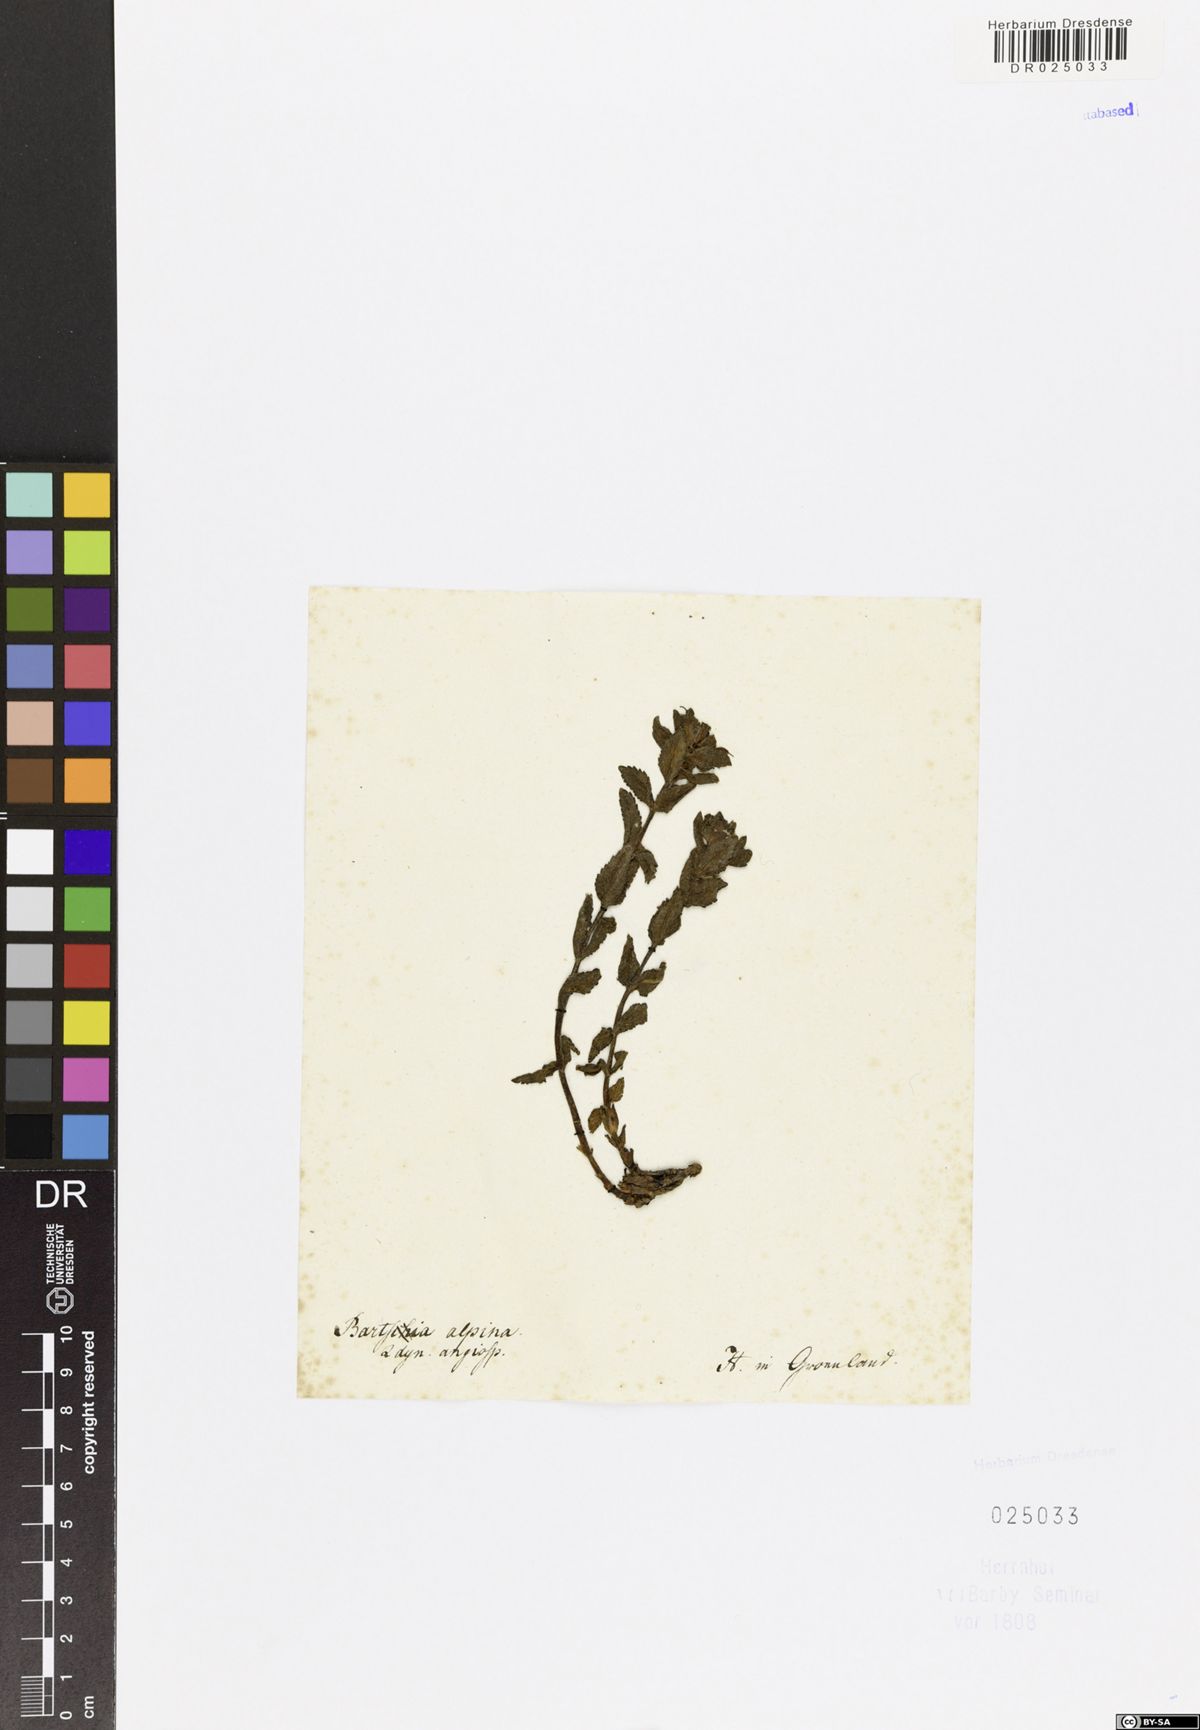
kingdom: Plantae
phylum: Tracheophyta
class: Magnoliopsida
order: Lamiales
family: Orobanchaceae
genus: Bartsia
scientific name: Bartsia alpina
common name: Alpine bartsia
